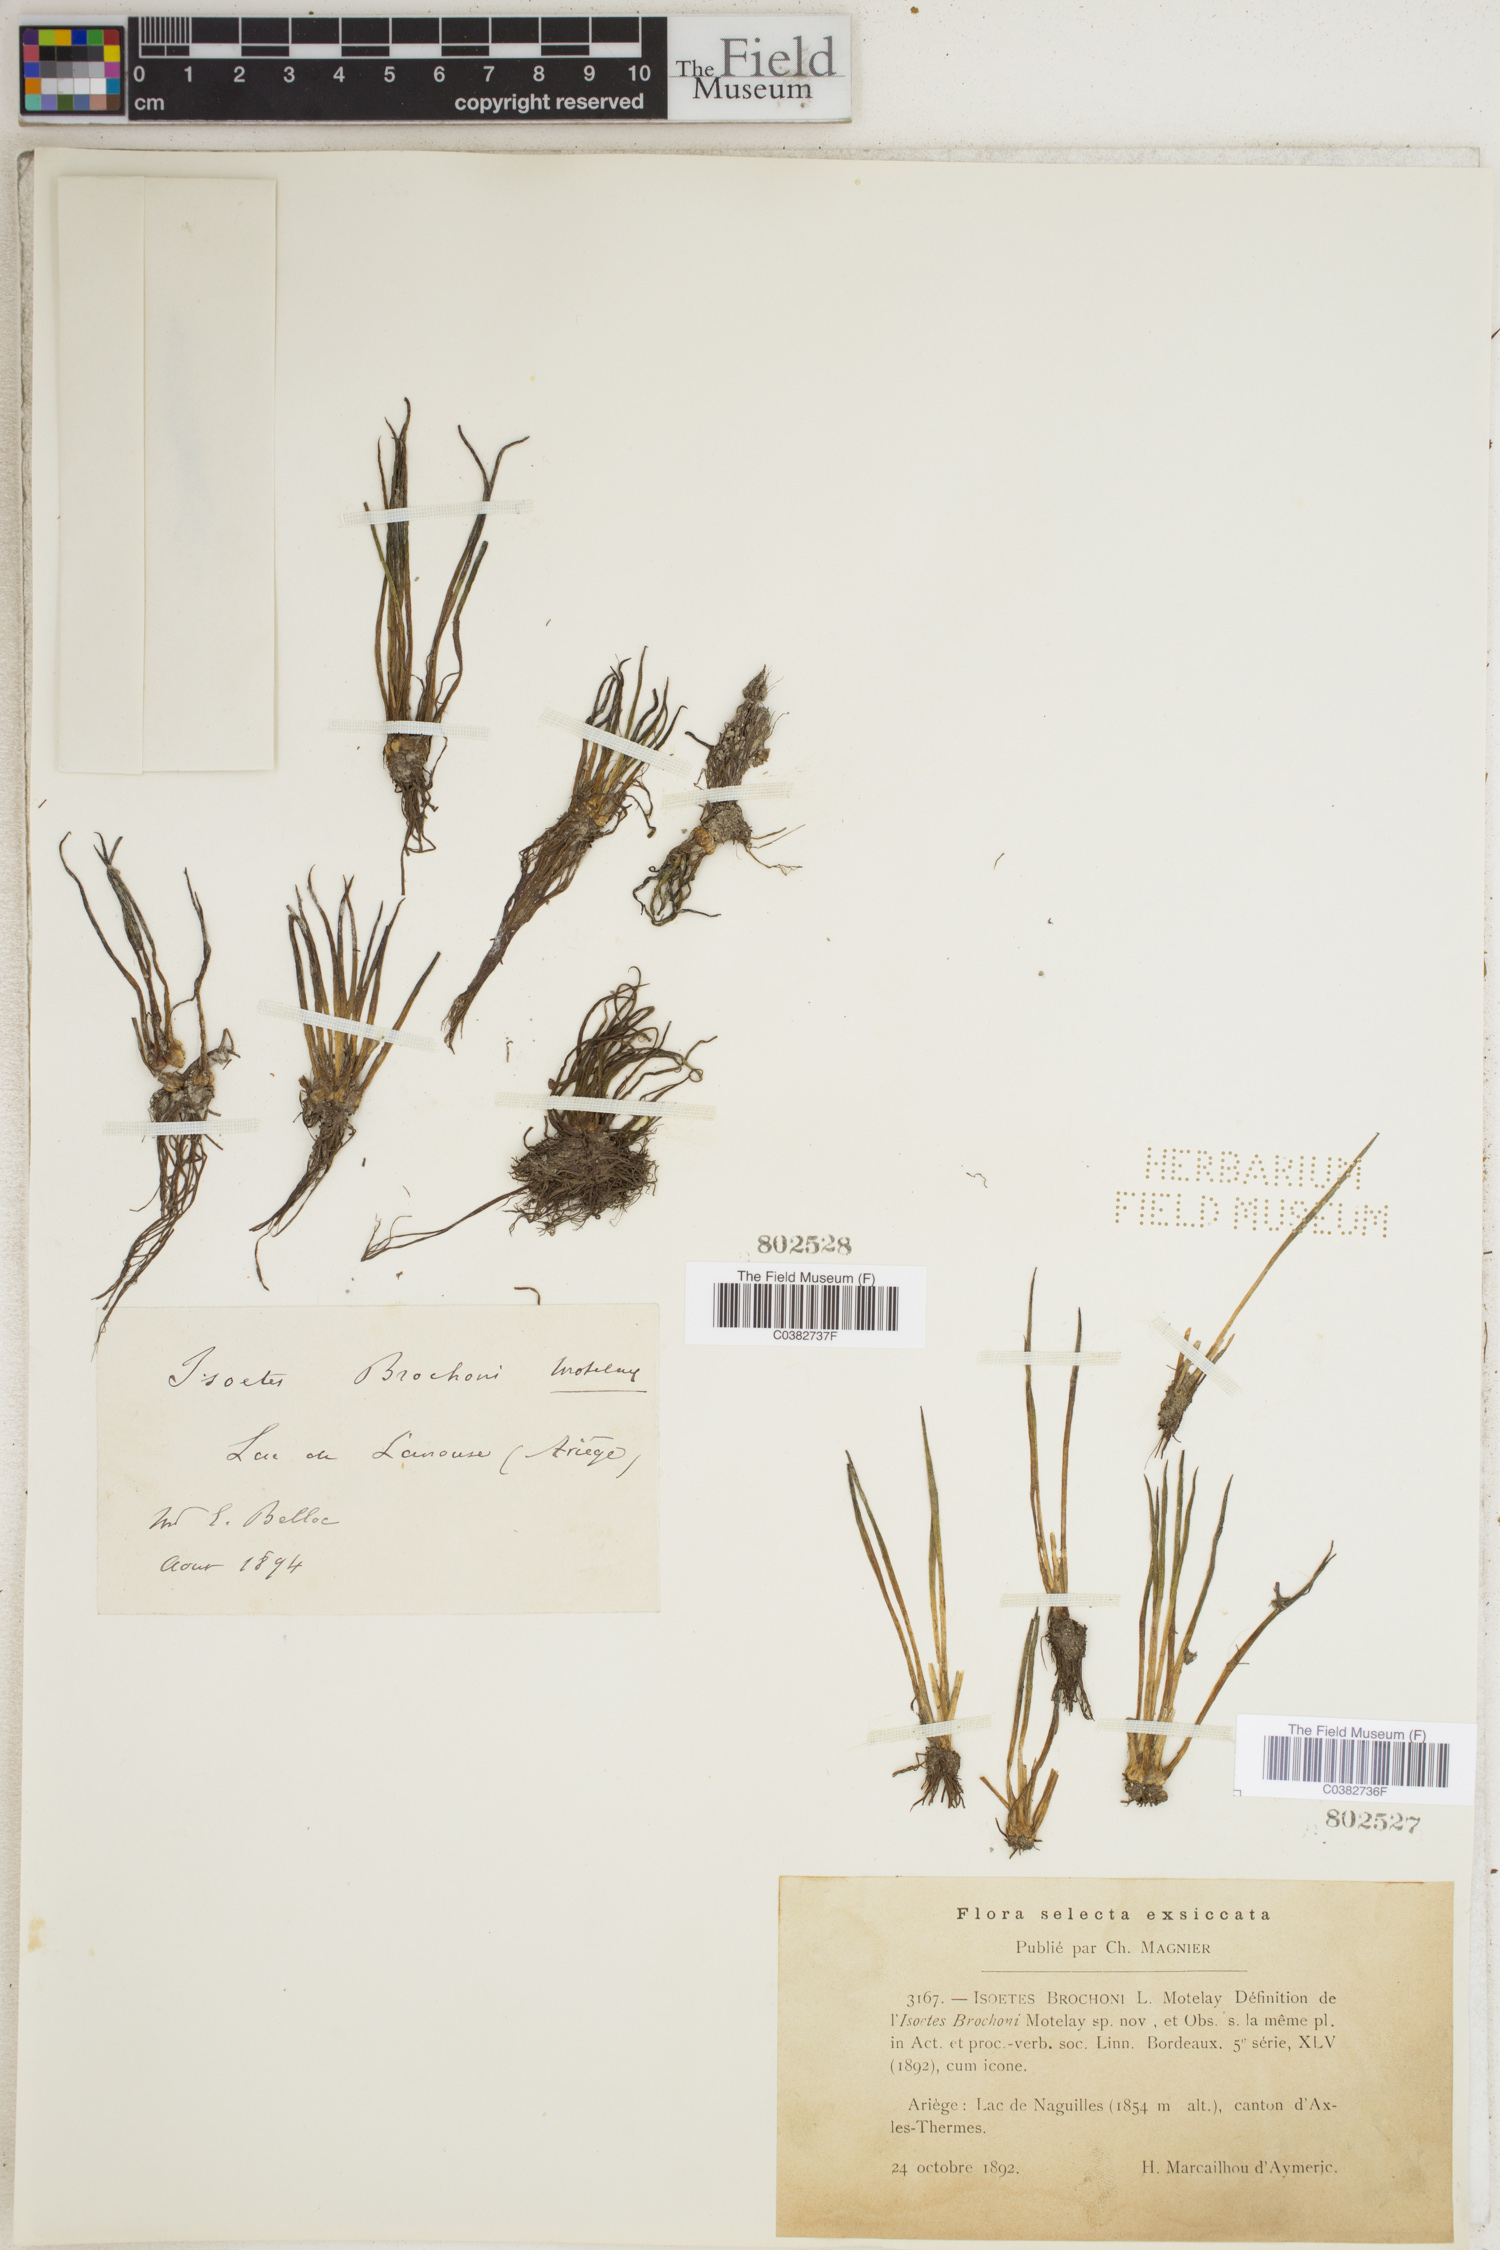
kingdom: Plantae
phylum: Tracheophyta
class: Lycopodiopsida
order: Isoetales
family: Isoetaceae
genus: Isoetes
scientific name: Isoetes lacustris
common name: Common quillwort
